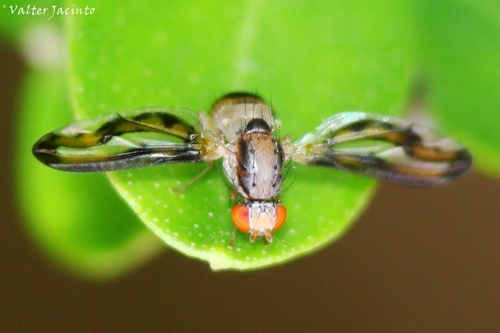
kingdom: Animalia
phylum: Arthropoda
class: Insecta
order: Diptera
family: Pallopteridae
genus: Toxonevra
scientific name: Toxonevra muliebris
